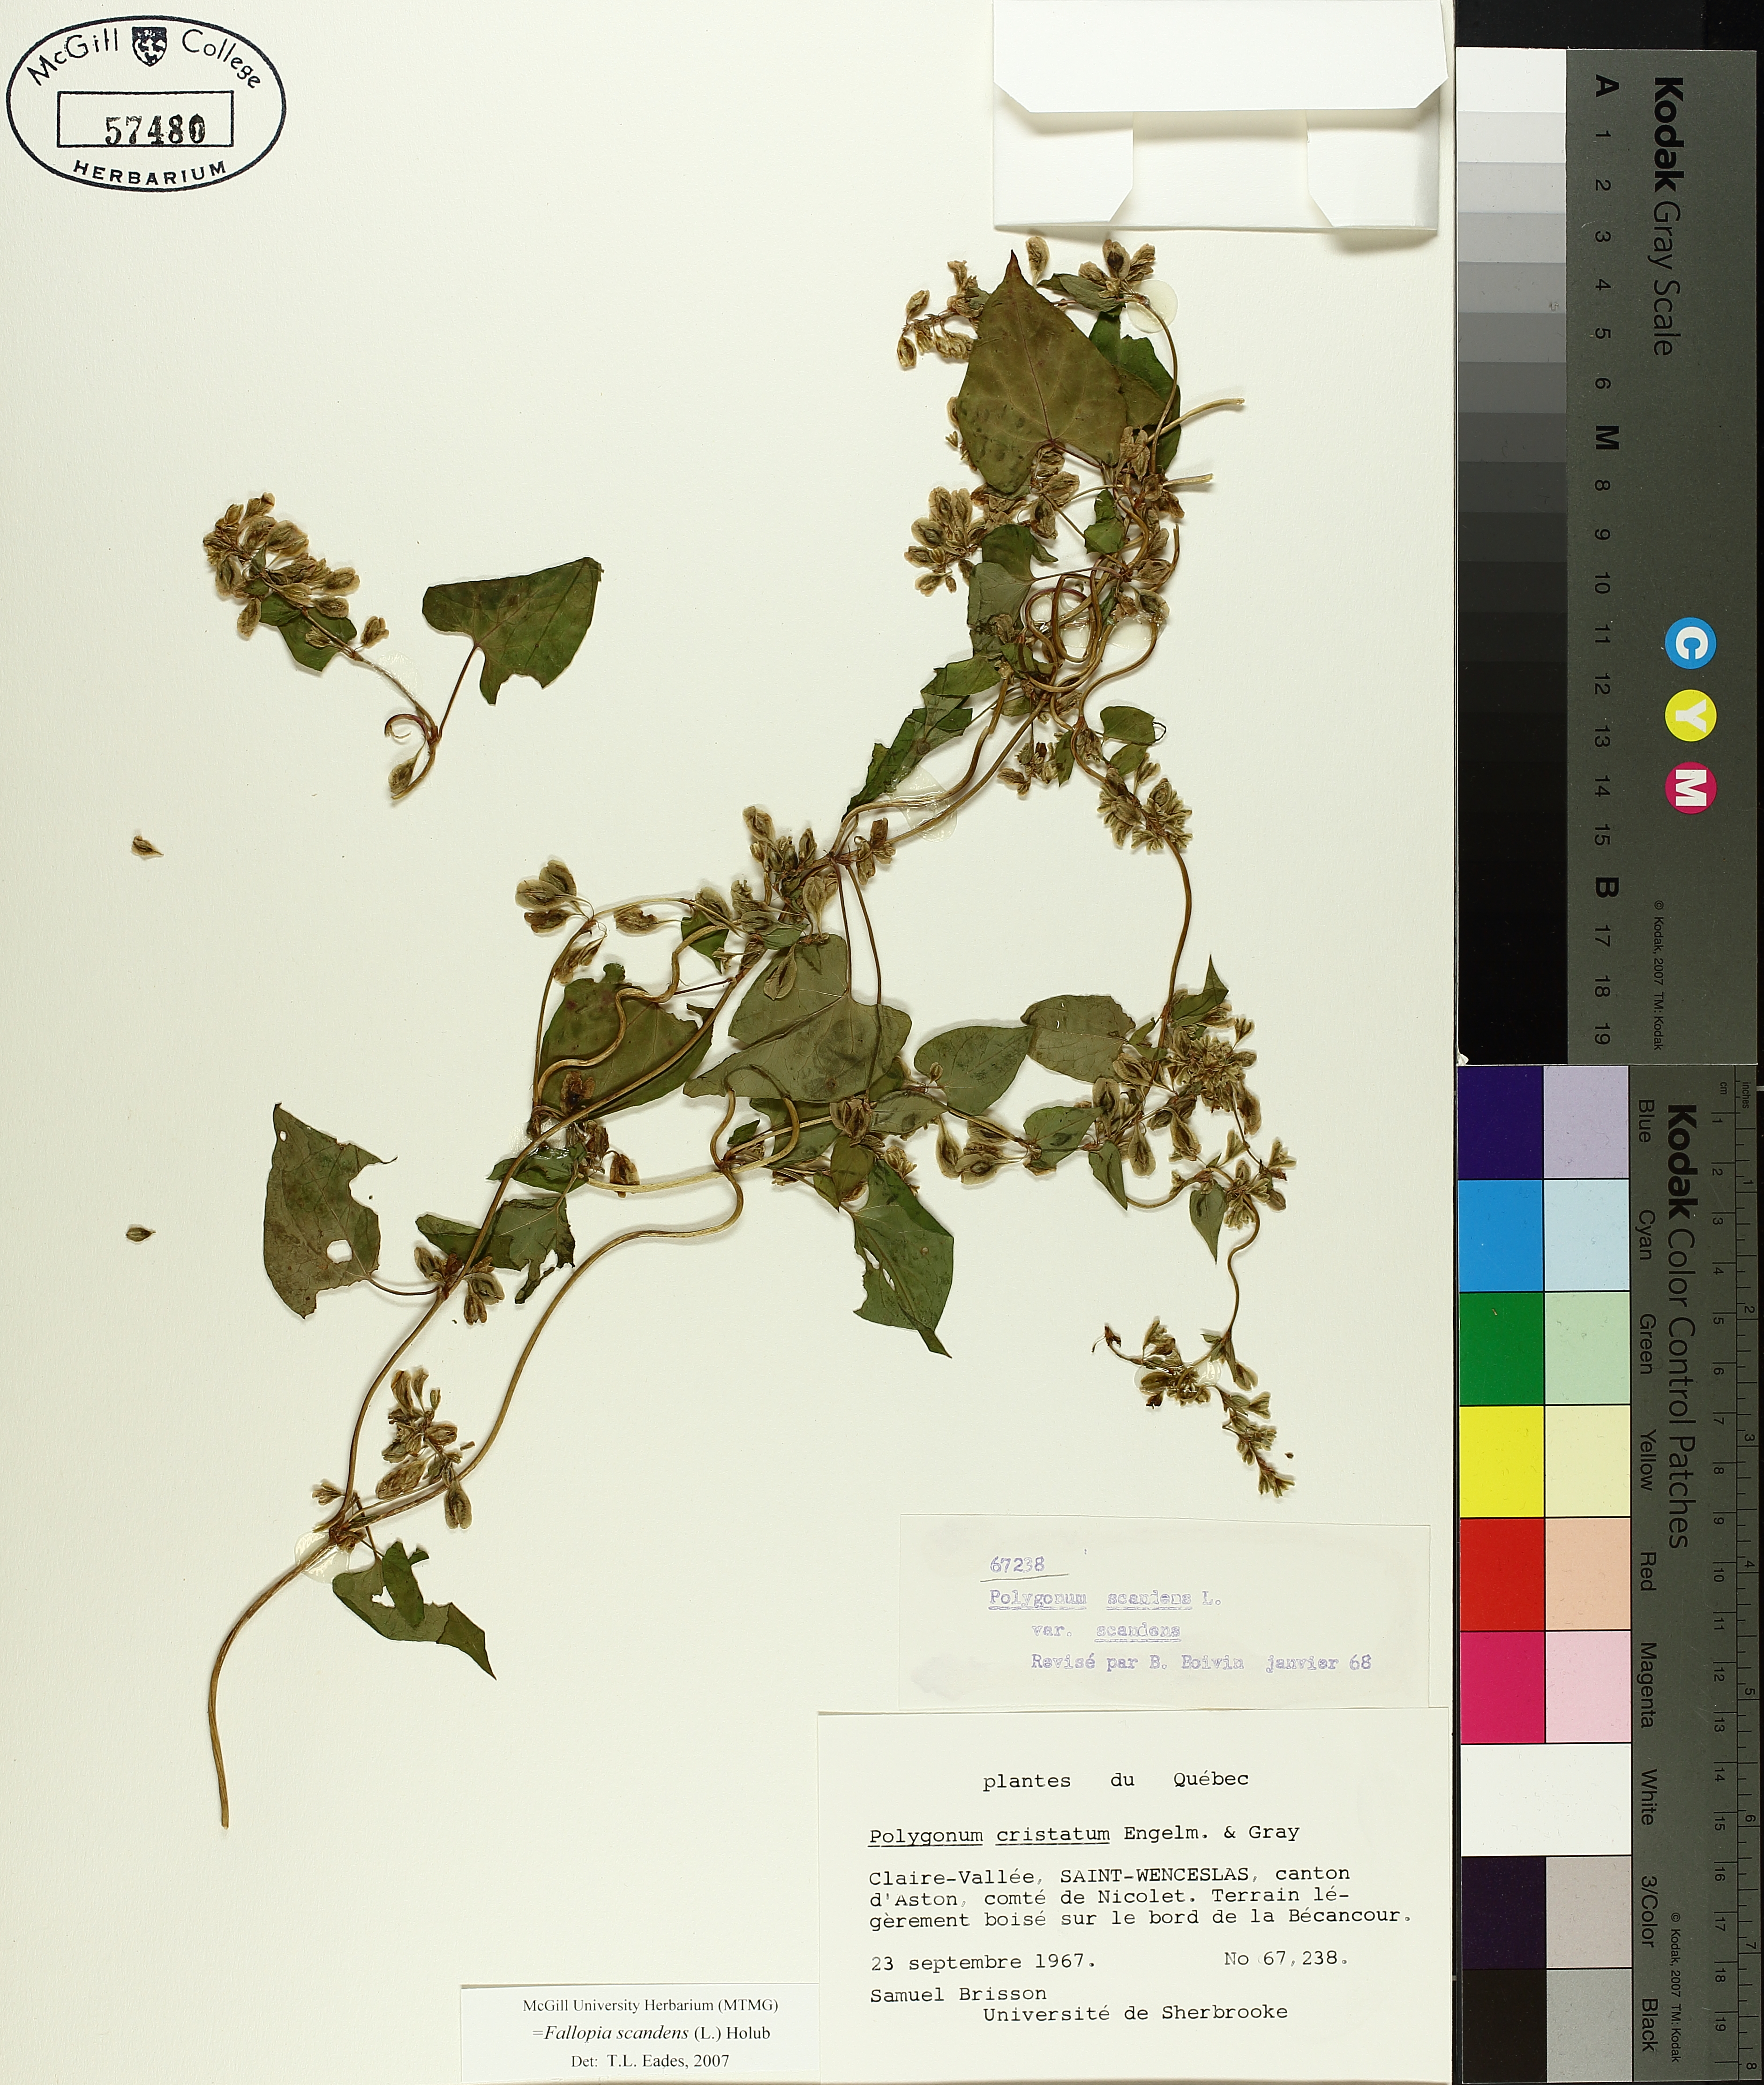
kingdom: Plantae
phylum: Tracheophyta
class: Magnoliopsida
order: Caryophyllales
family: Polygonaceae
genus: Fallopia
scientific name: Fallopia scandens
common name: Climbing false buckwheat
